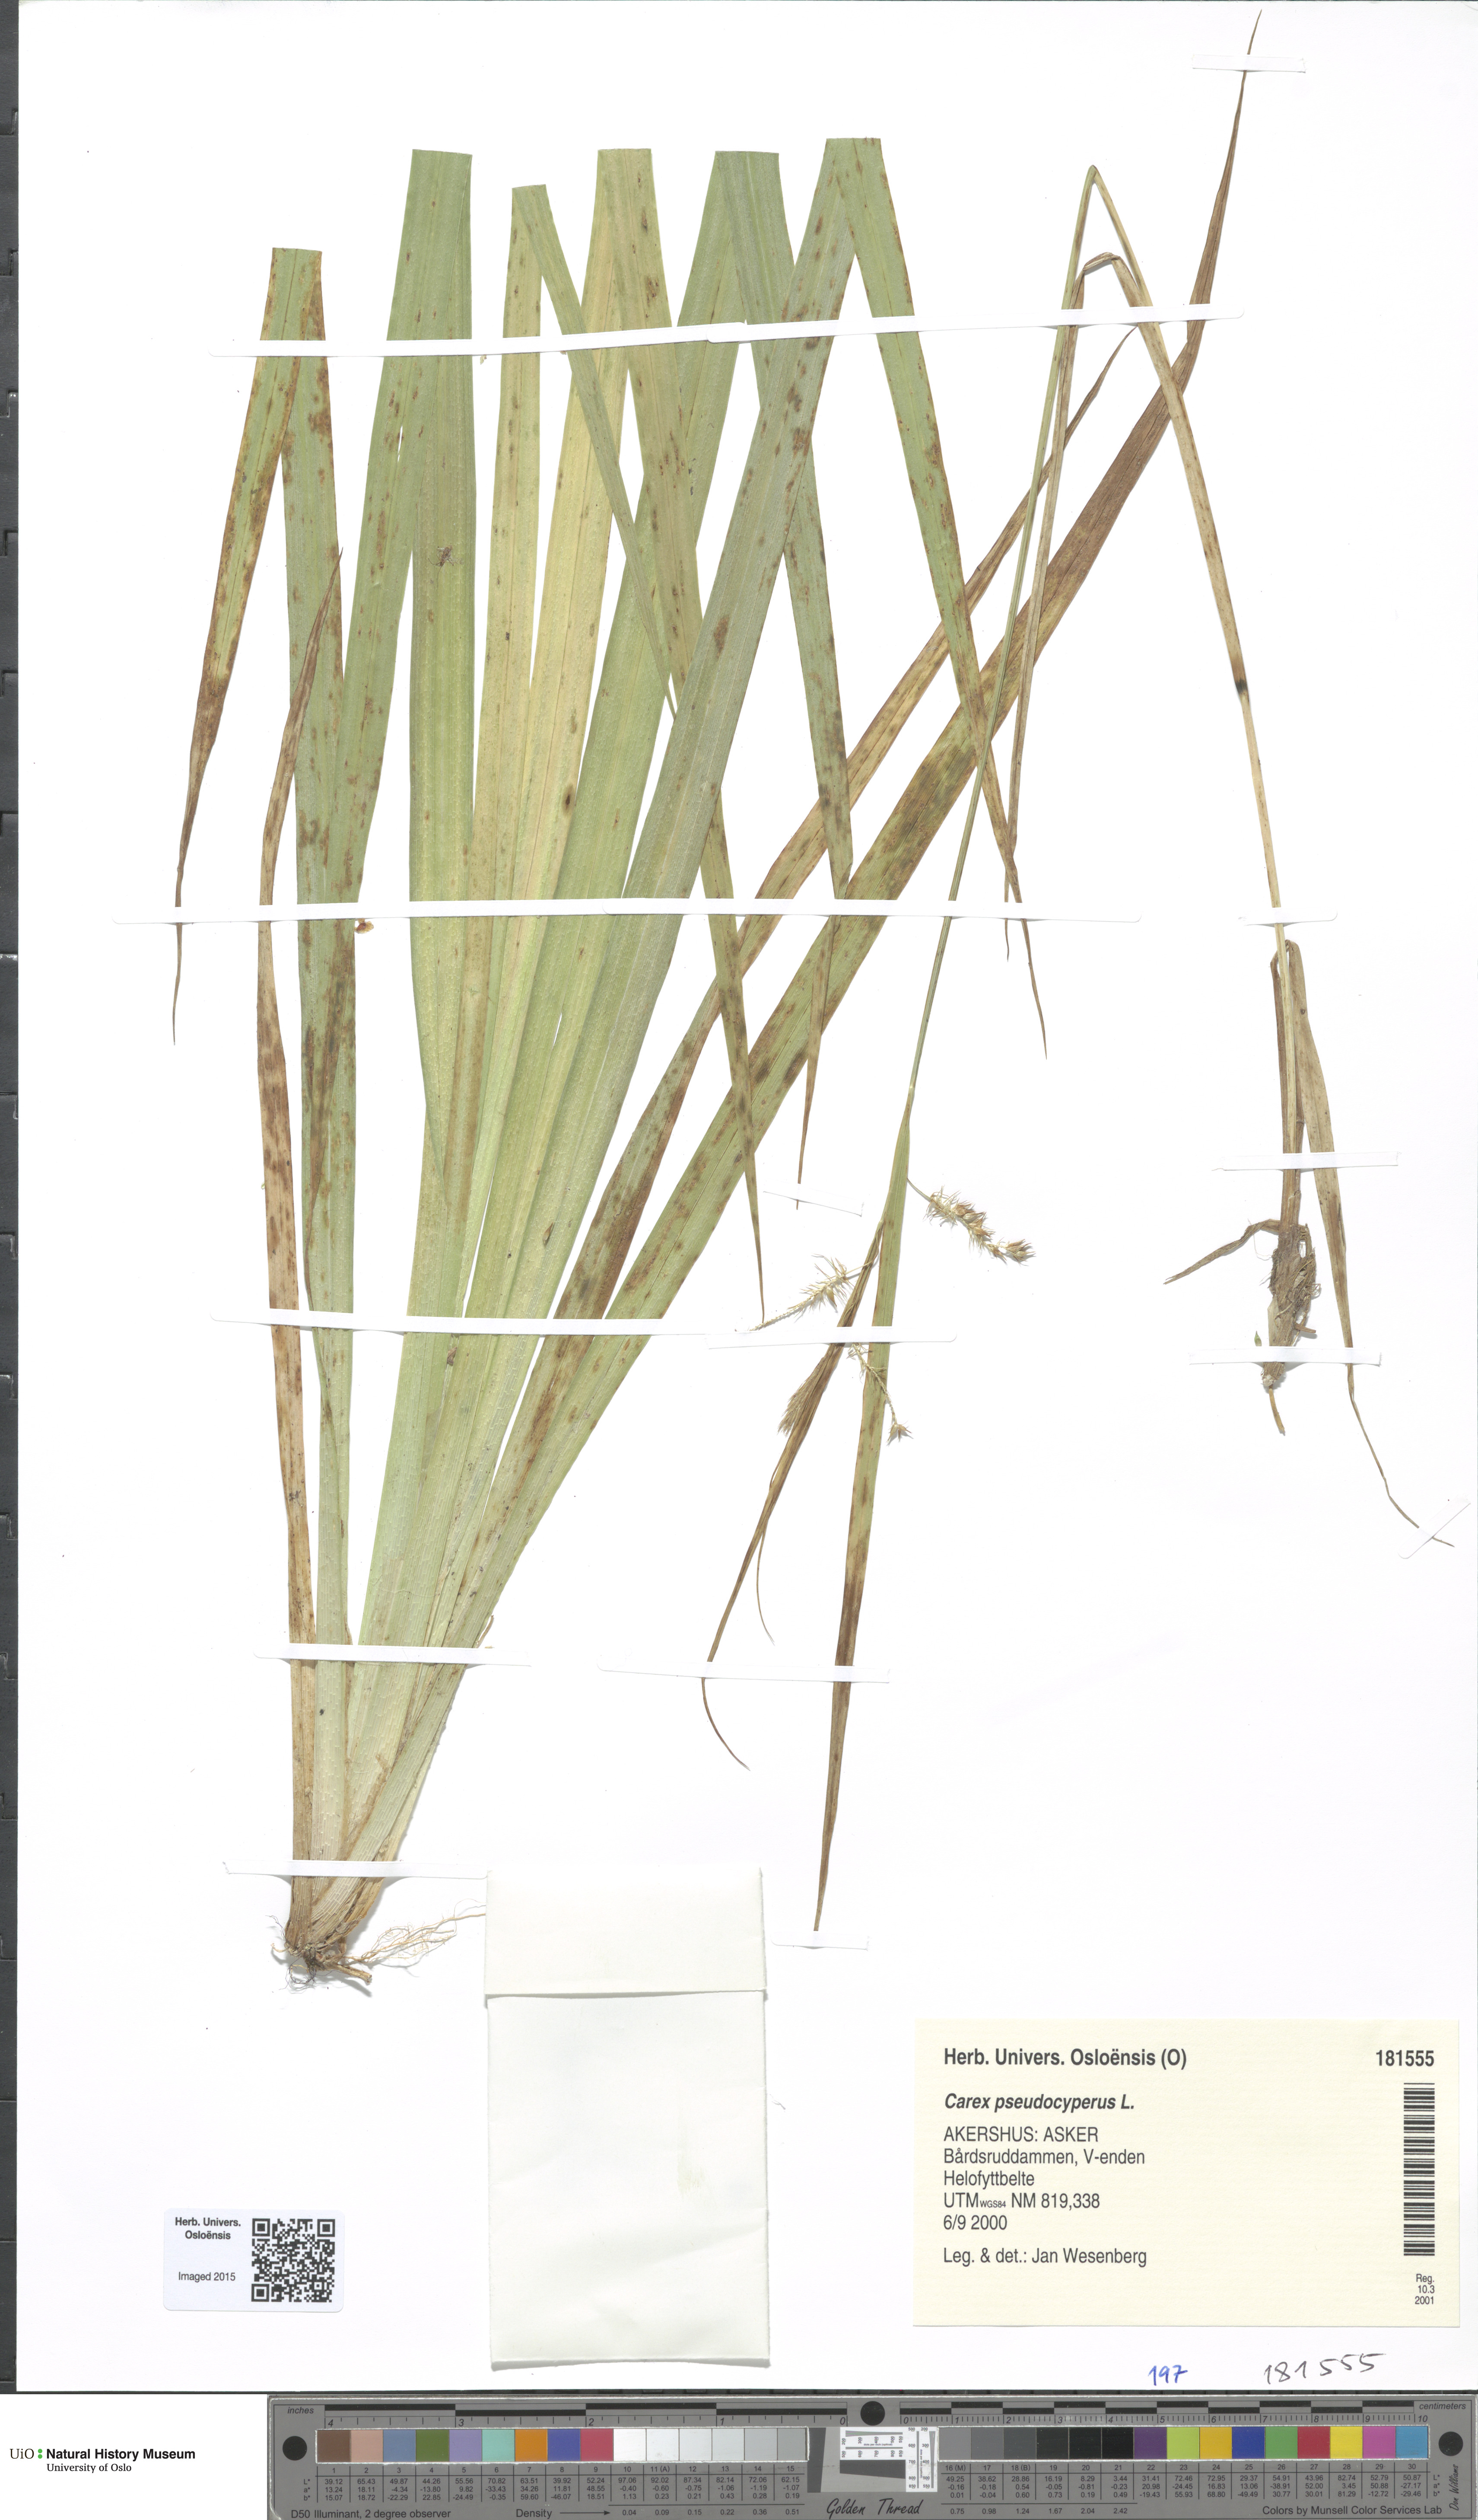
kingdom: Plantae
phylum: Tracheophyta
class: Liliopsida
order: Poales
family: Cyperaceae
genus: Carex
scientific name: Carex pseudocyperus
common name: Cyperus sedge
